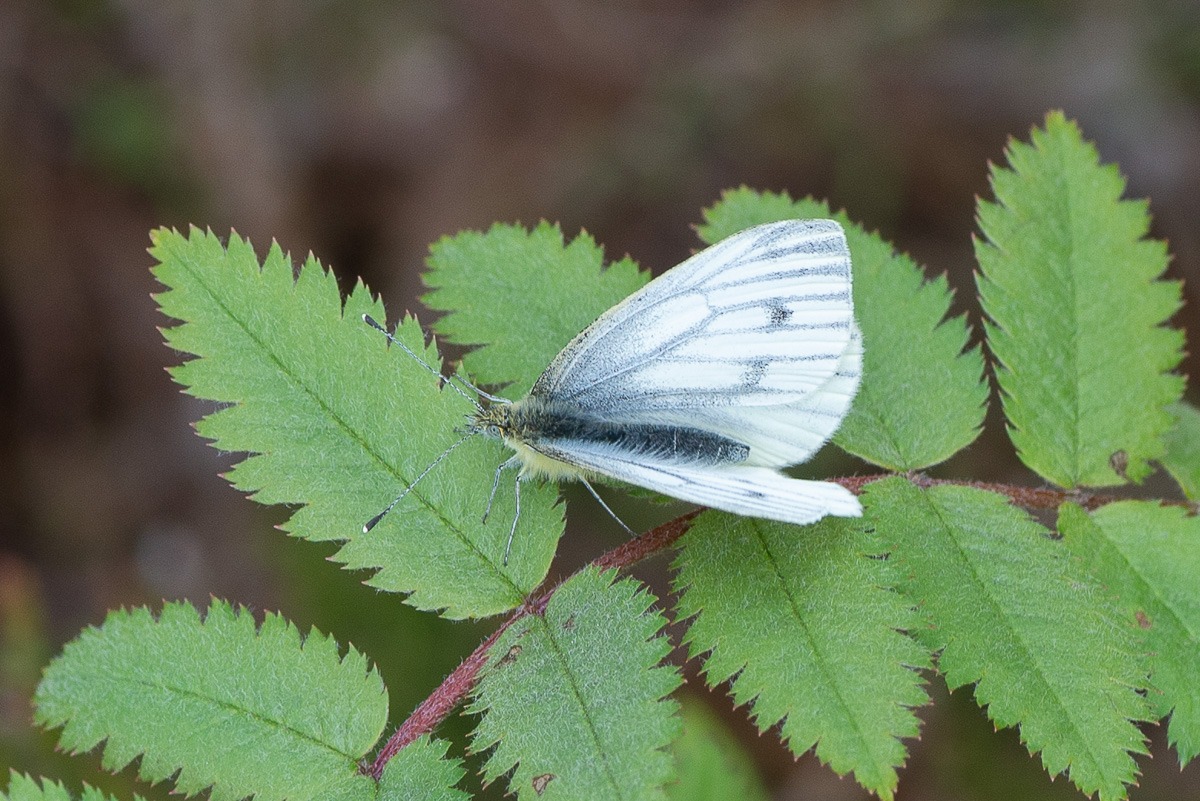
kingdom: Animalia
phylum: Arthropoda
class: Insecta
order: Lepidoptera
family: Pieridae
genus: Pieris
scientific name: Pieris napi
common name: Grønåret kålsommerfugl
